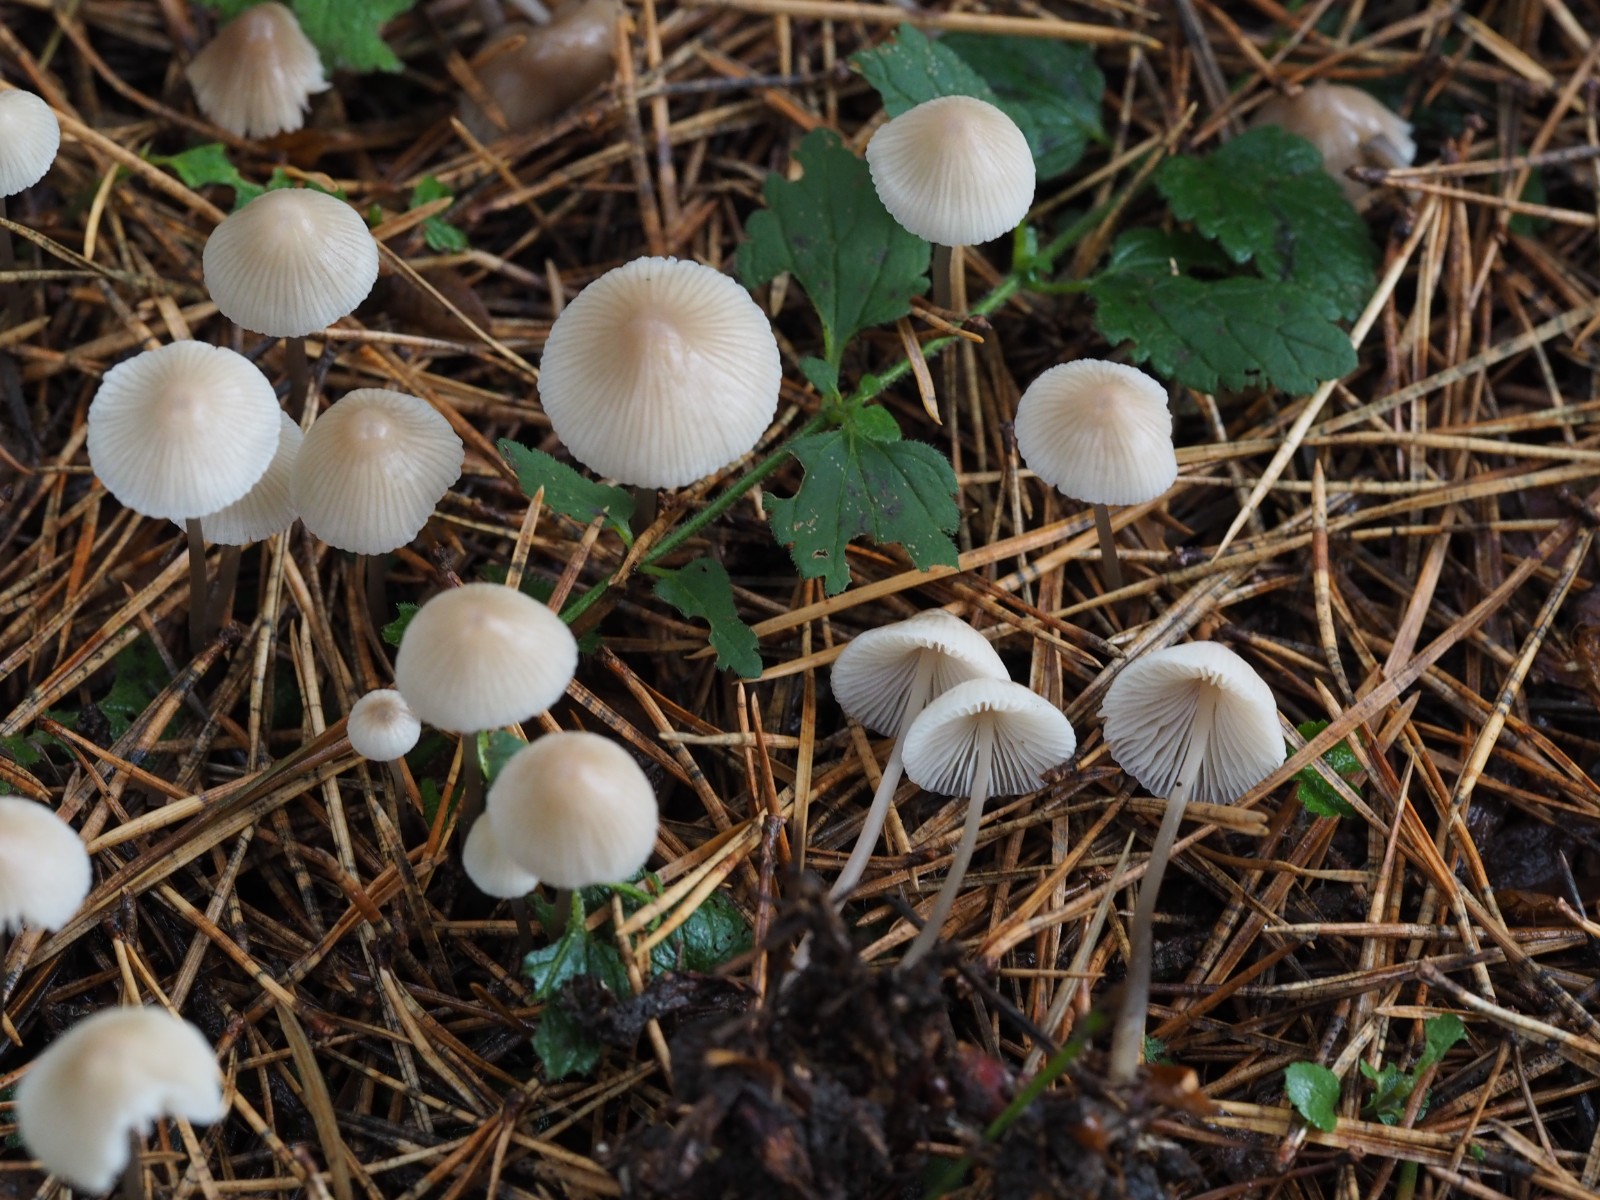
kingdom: Fungi
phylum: Basidiomycota
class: Agaricomycetes
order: Agaricales
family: Mycenaceae
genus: Mycena
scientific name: Mycena
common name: huesvamp
